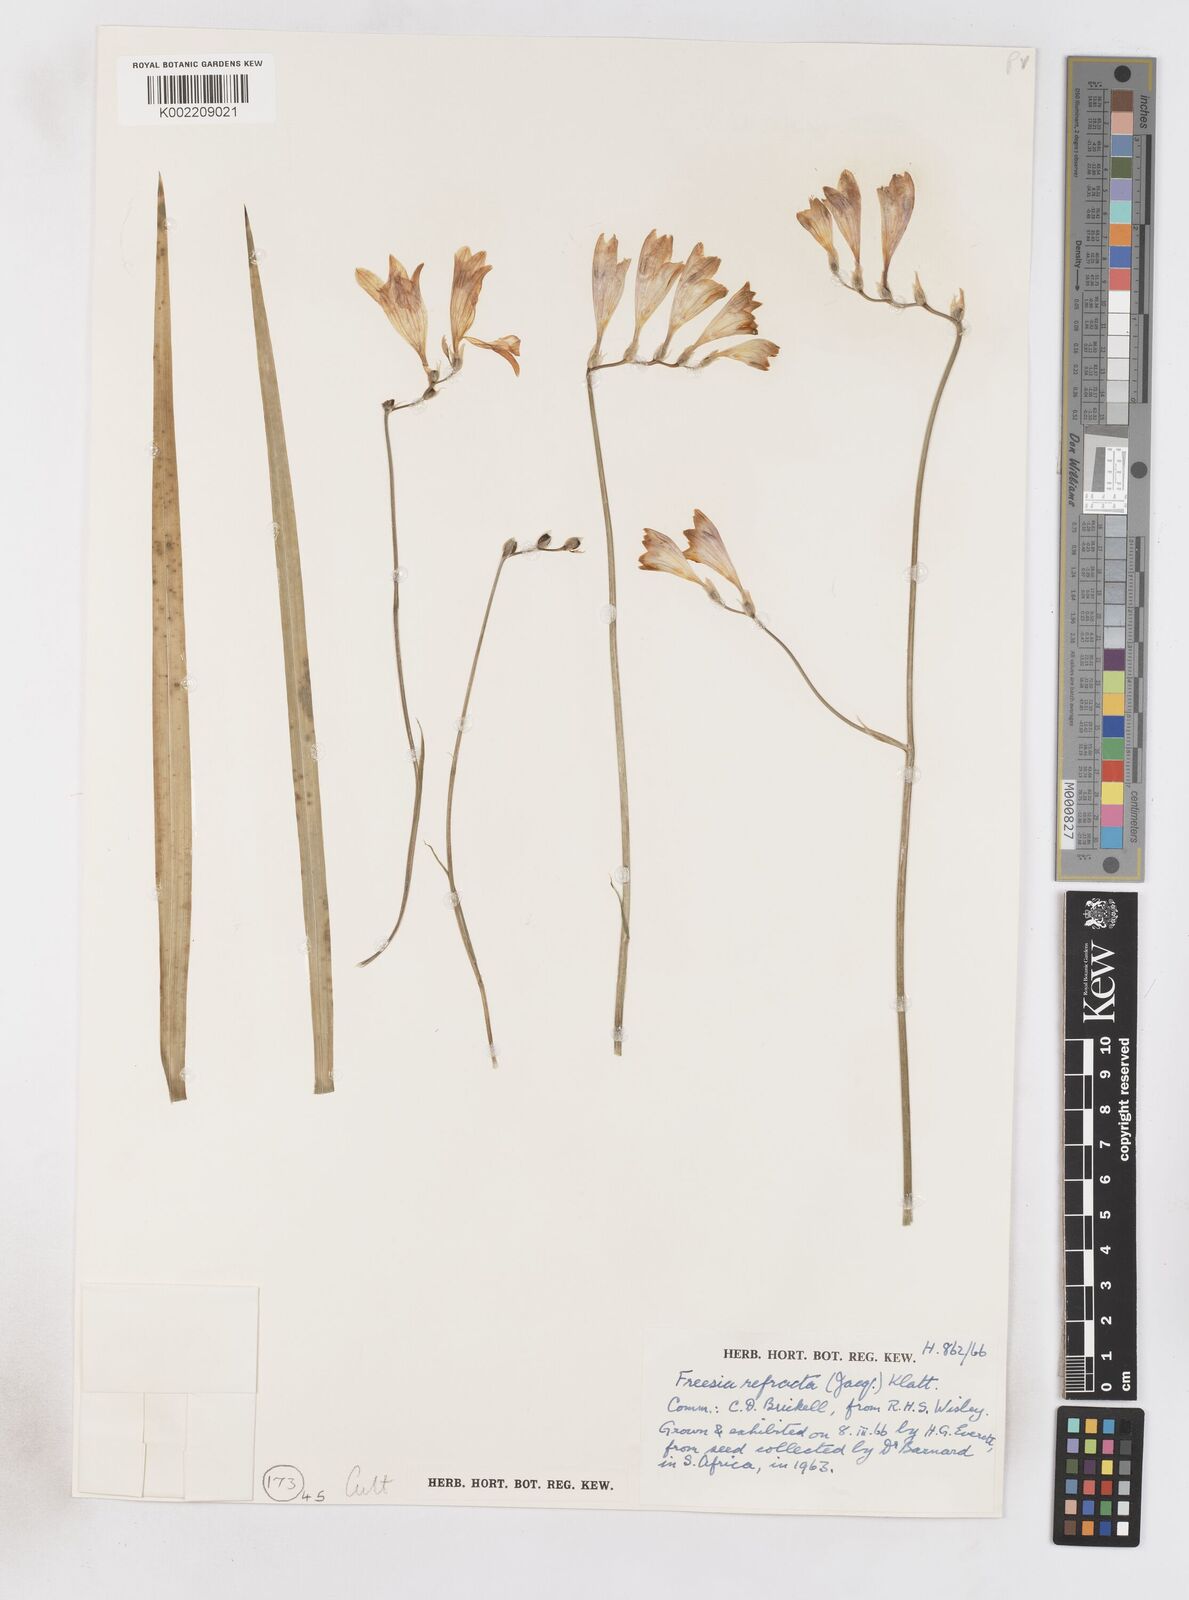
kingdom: Plantae
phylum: Tracheophyta
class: Liliopsida
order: Asparagales
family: Iridaceae
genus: Freesia
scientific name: Freesia refracta
